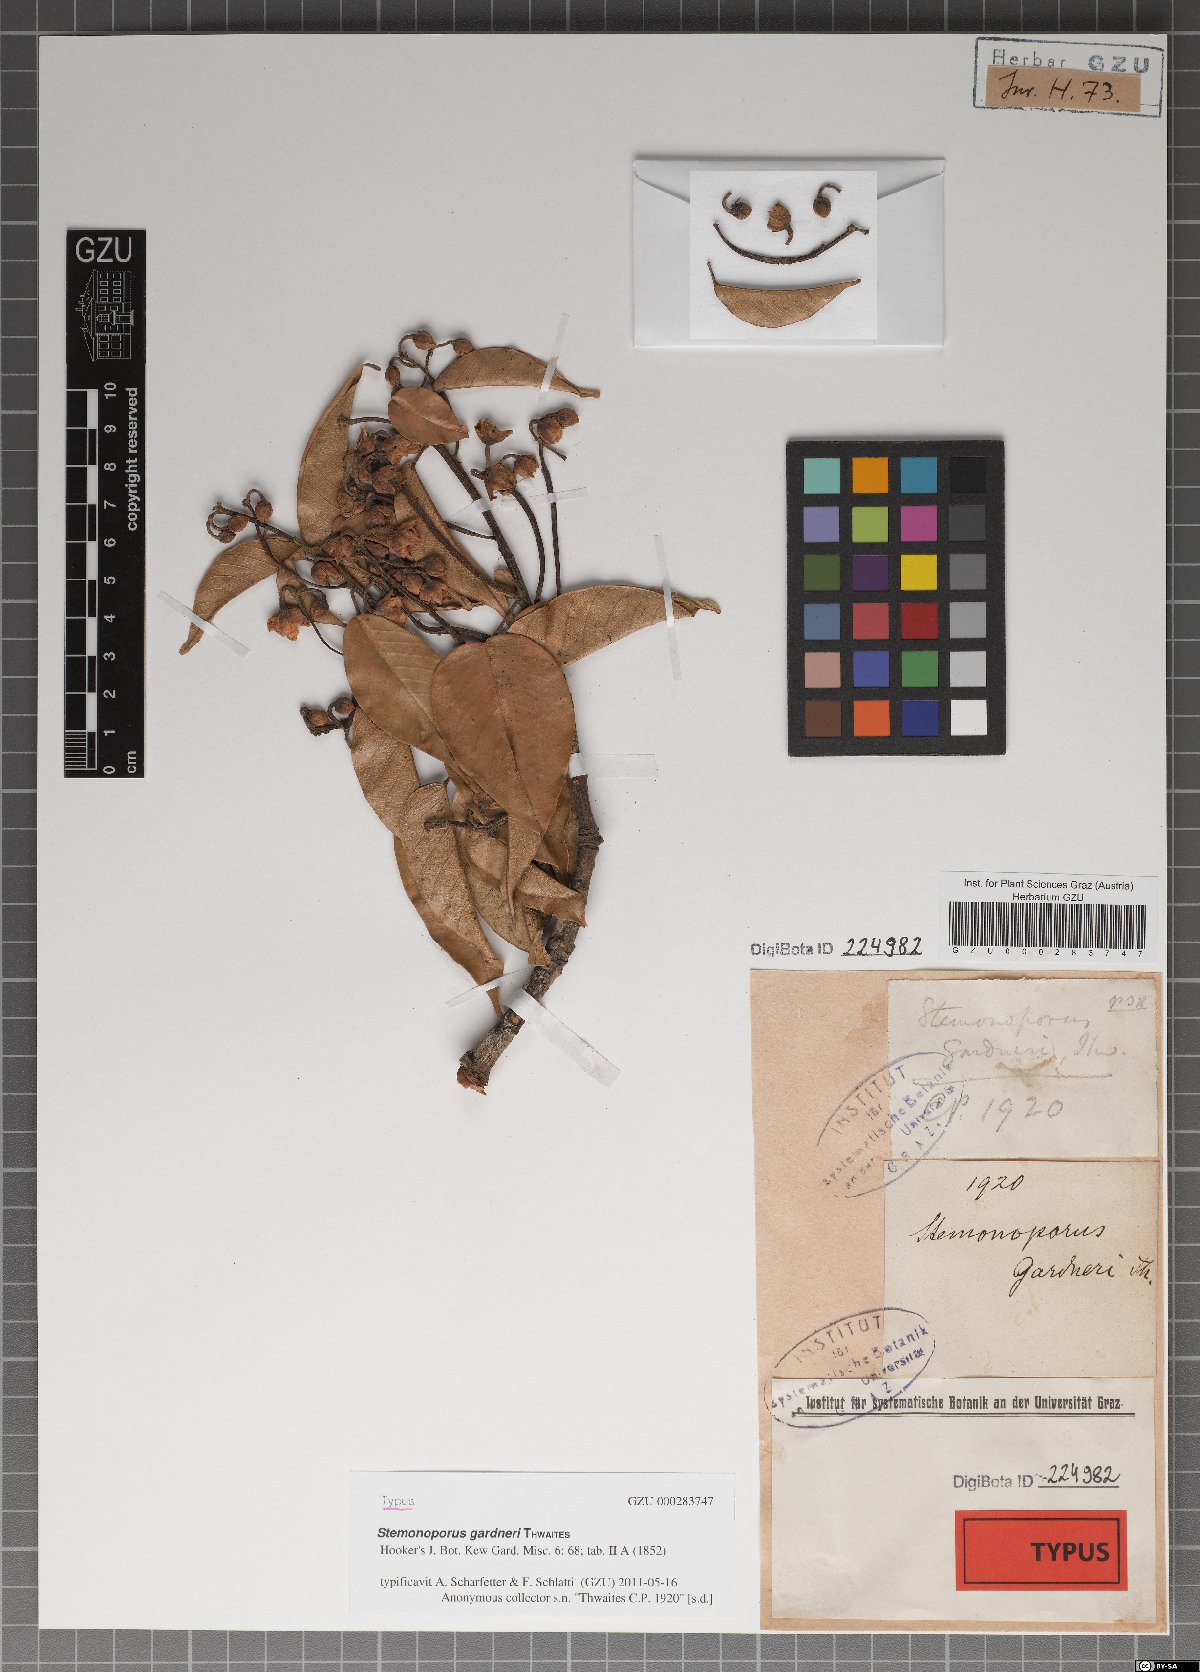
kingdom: Plantae
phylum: Tracheophyta
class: Magnoliopsida
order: Malvales
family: Dipterocarpaceae
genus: Stemonoporus
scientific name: Stemonoporus gardneri
